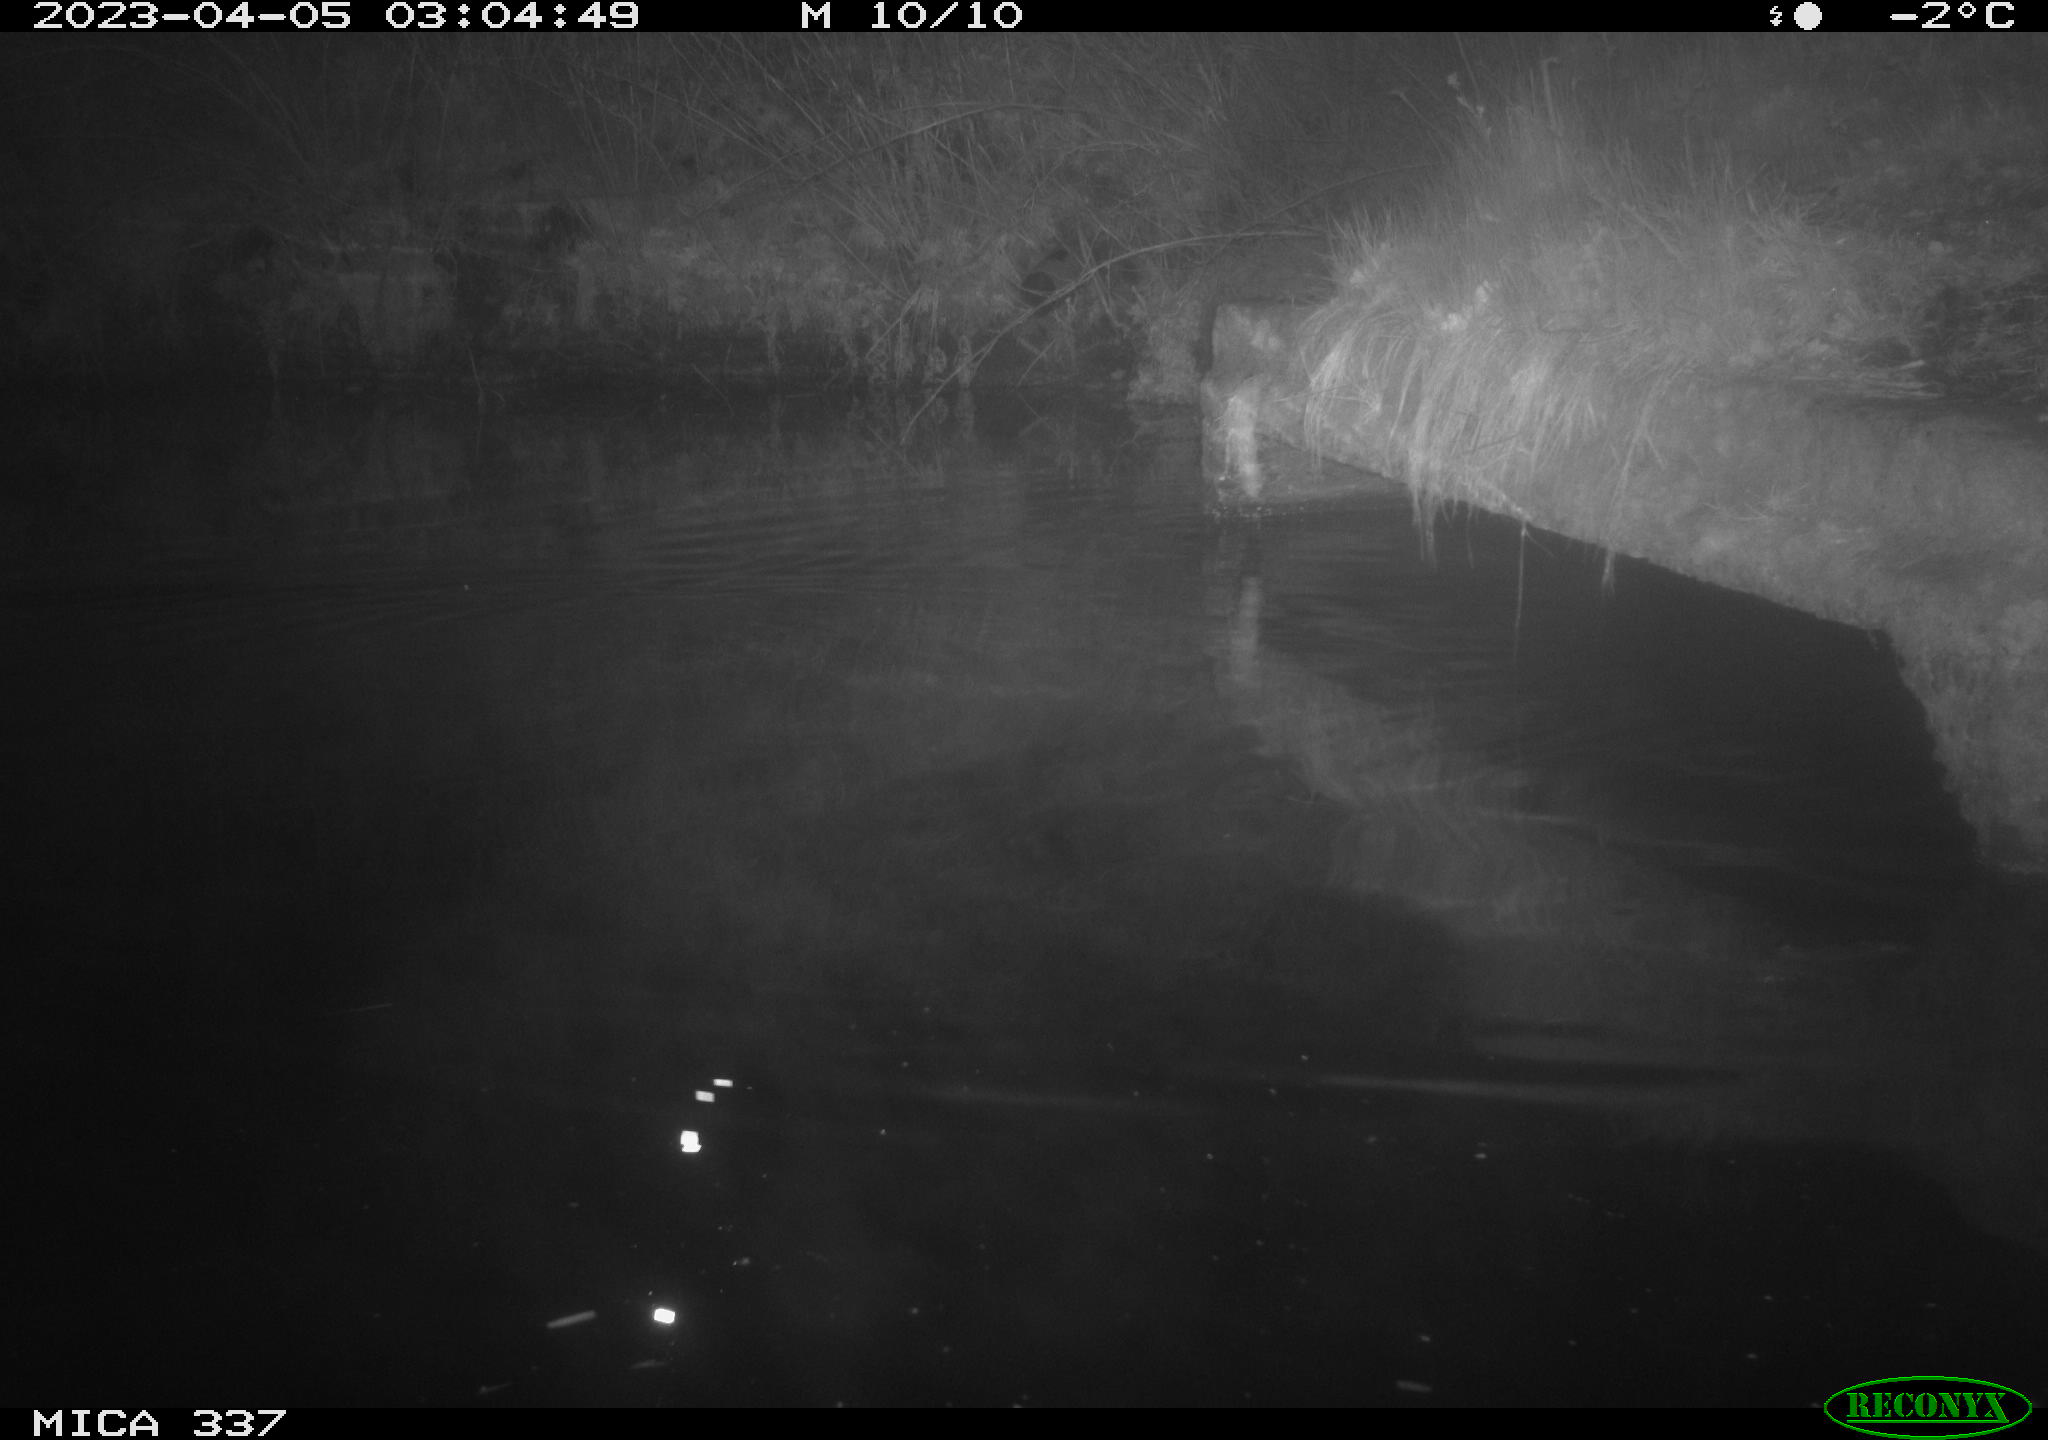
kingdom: Animalia
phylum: Chordata
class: Aves
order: Anseriformes
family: Anatidae
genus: Anas
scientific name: Anas platyrhynchos
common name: Mallard
